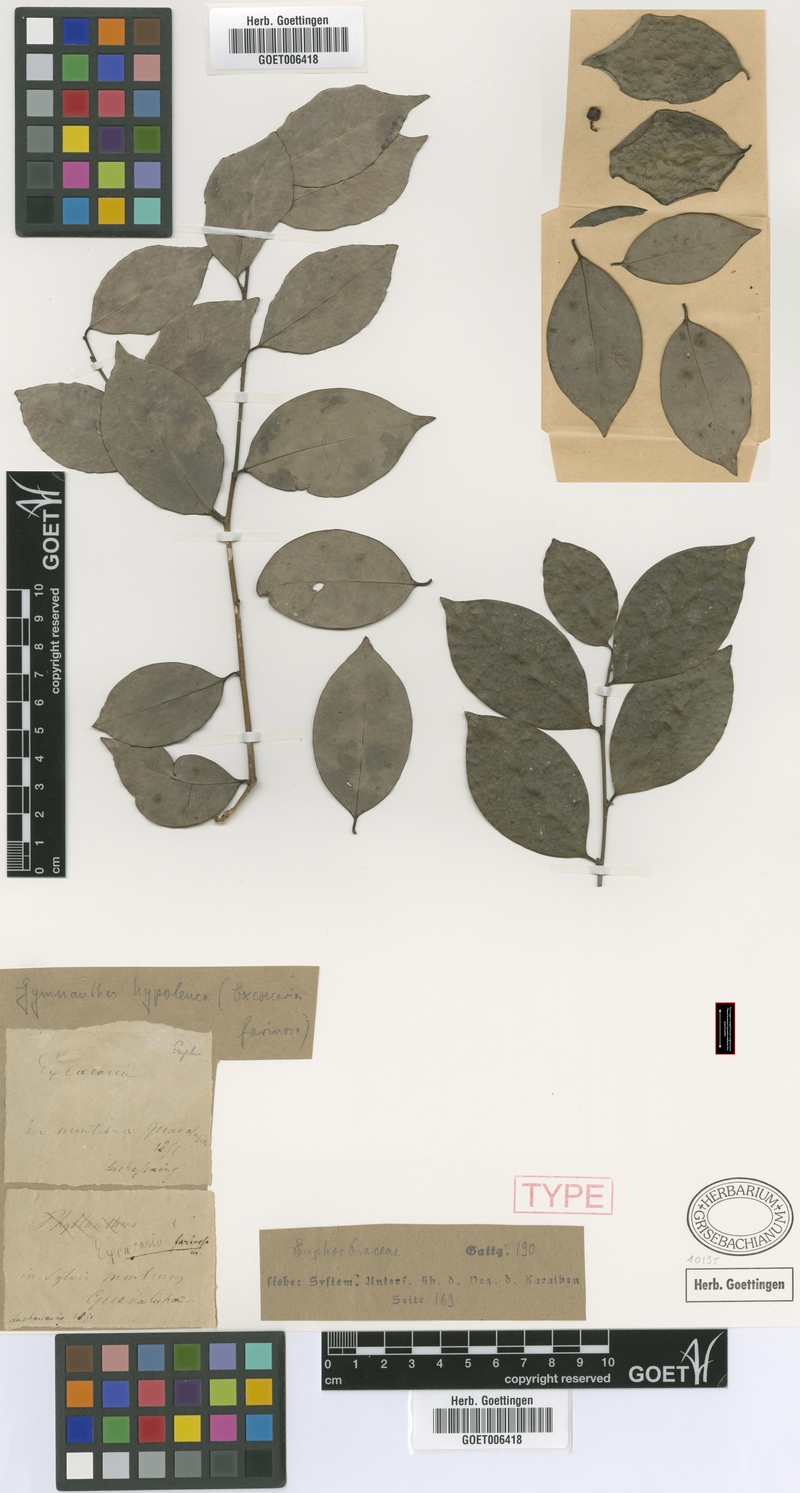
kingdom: Plantae
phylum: Tracheophyta
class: Magnoliopsida
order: Malpighiales
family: Euphorbiaceae
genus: Gymnanthes
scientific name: Gymnanthes farinosa
